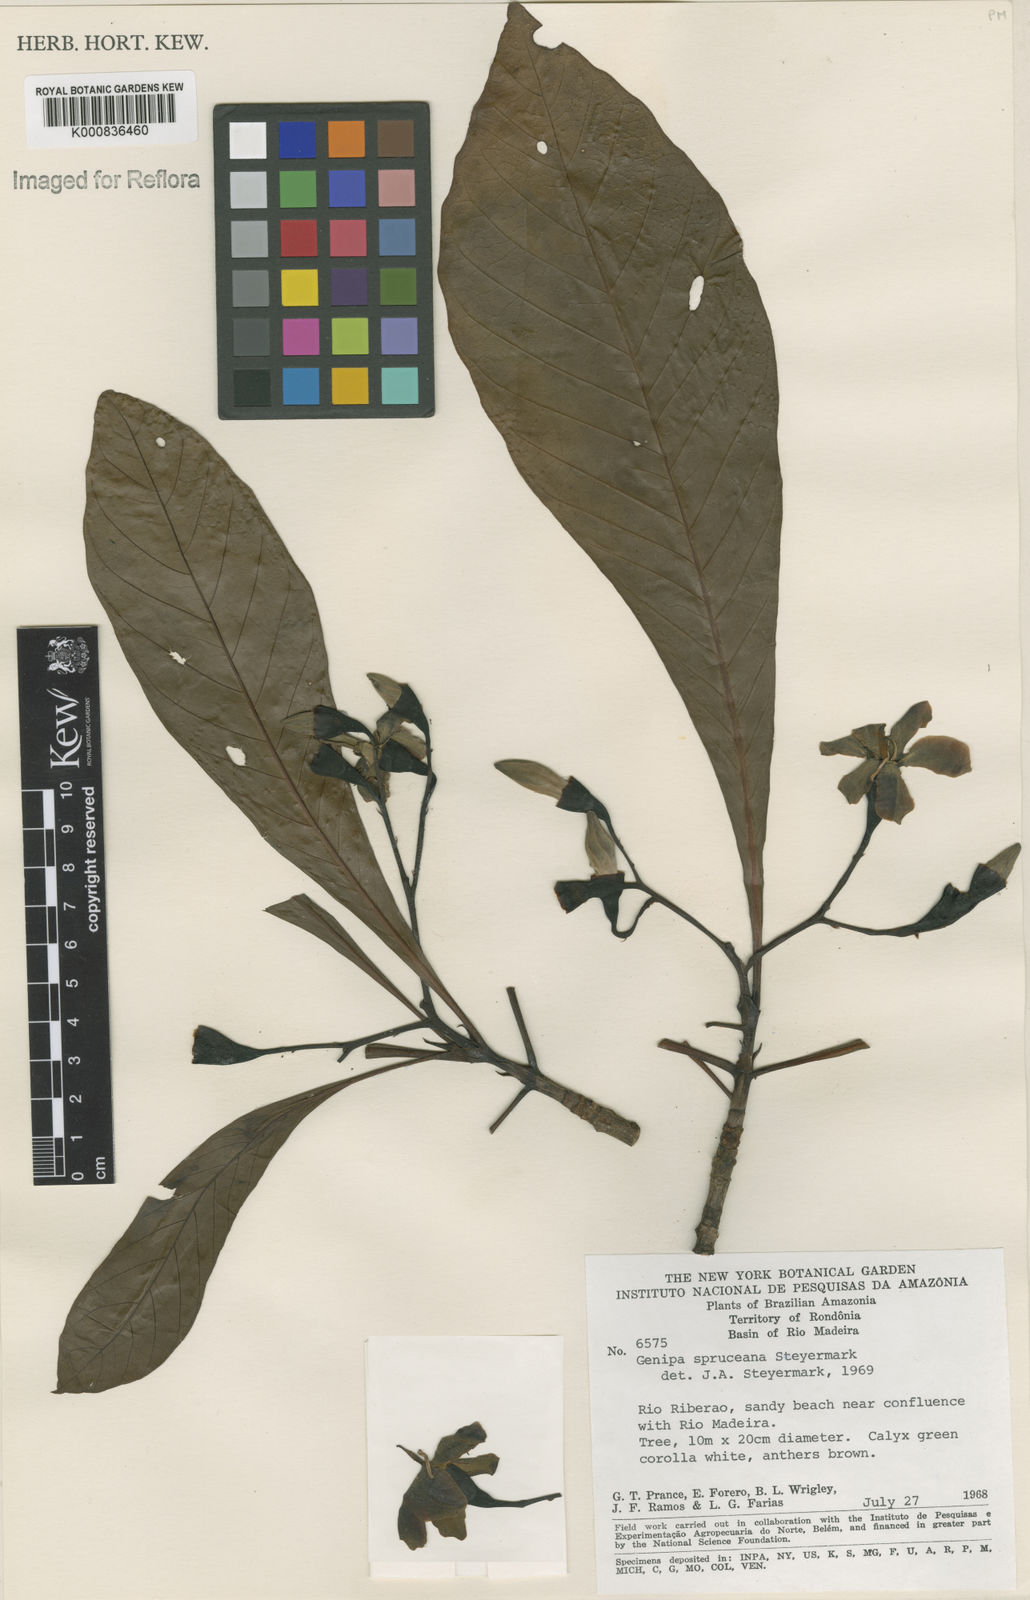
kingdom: Plantae
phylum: Tracheophyta
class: Magnoliopsida
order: Gentianales
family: Rubiaceae
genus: Genipa
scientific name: Genipa americana
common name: Genipap
